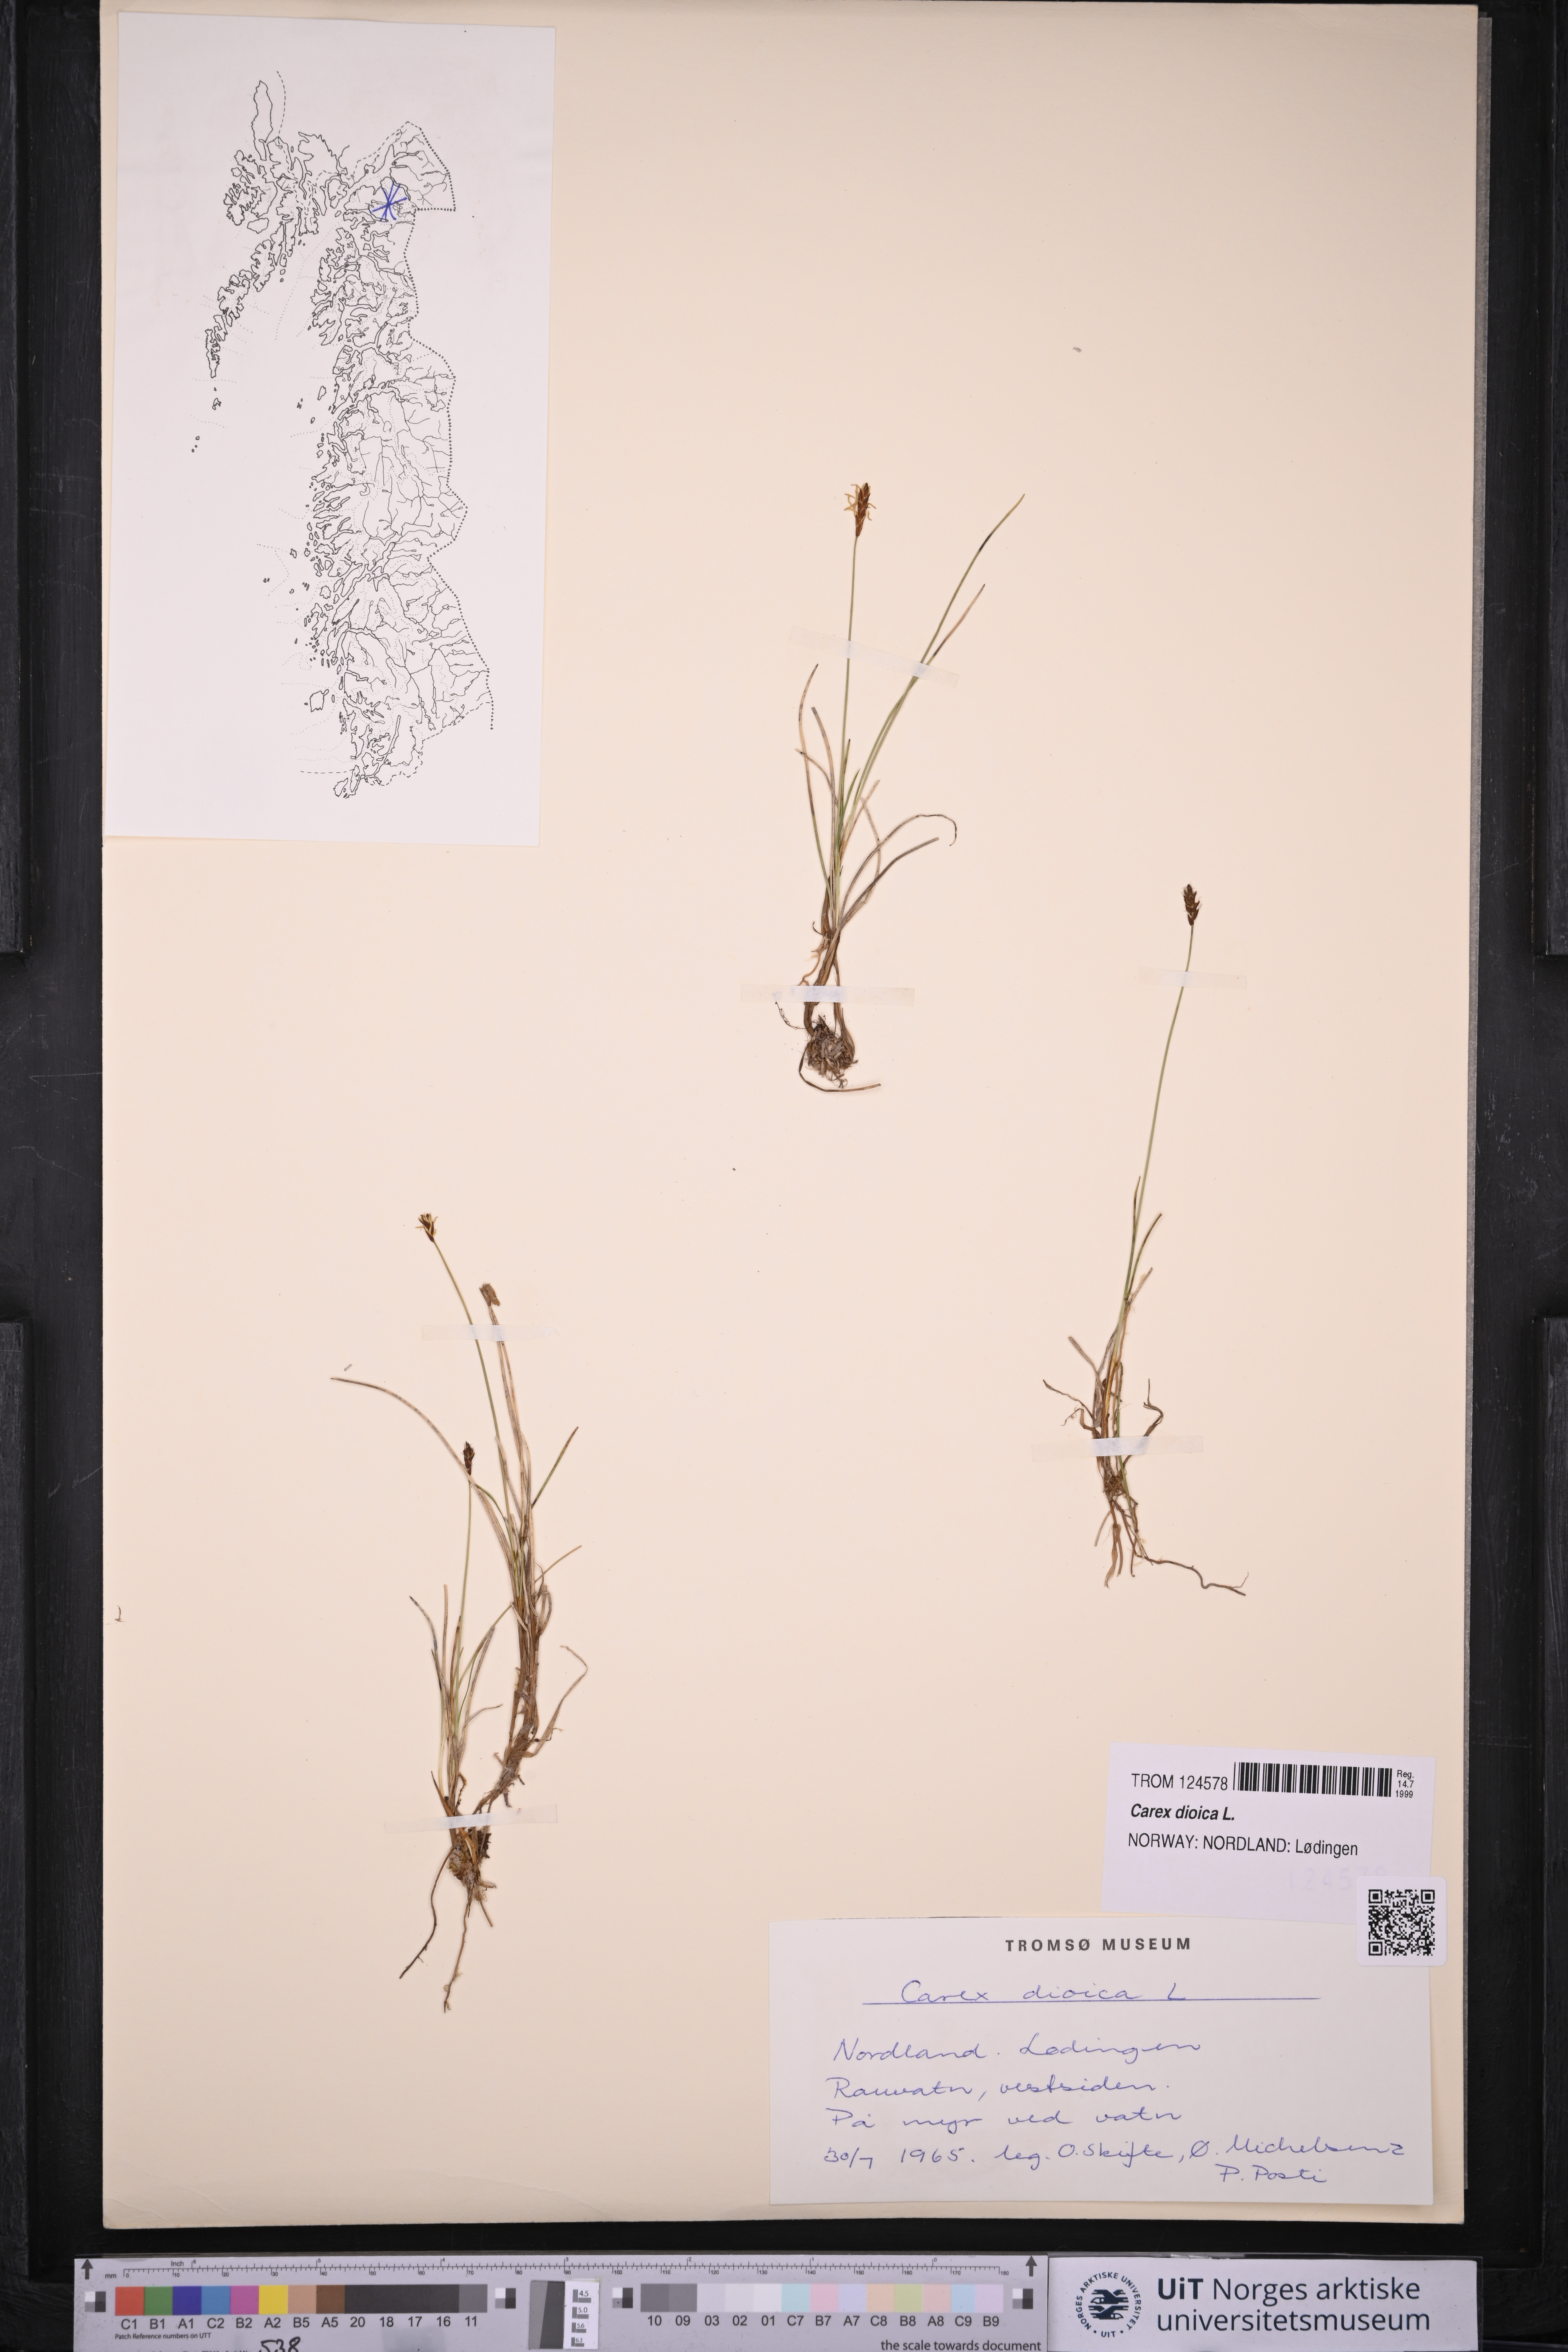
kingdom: Plantae
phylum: Tracheophyta
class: Liliopsida
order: Poales
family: Cyperaceae
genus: Carex
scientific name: Carex dioica
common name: Dioecious sedge
